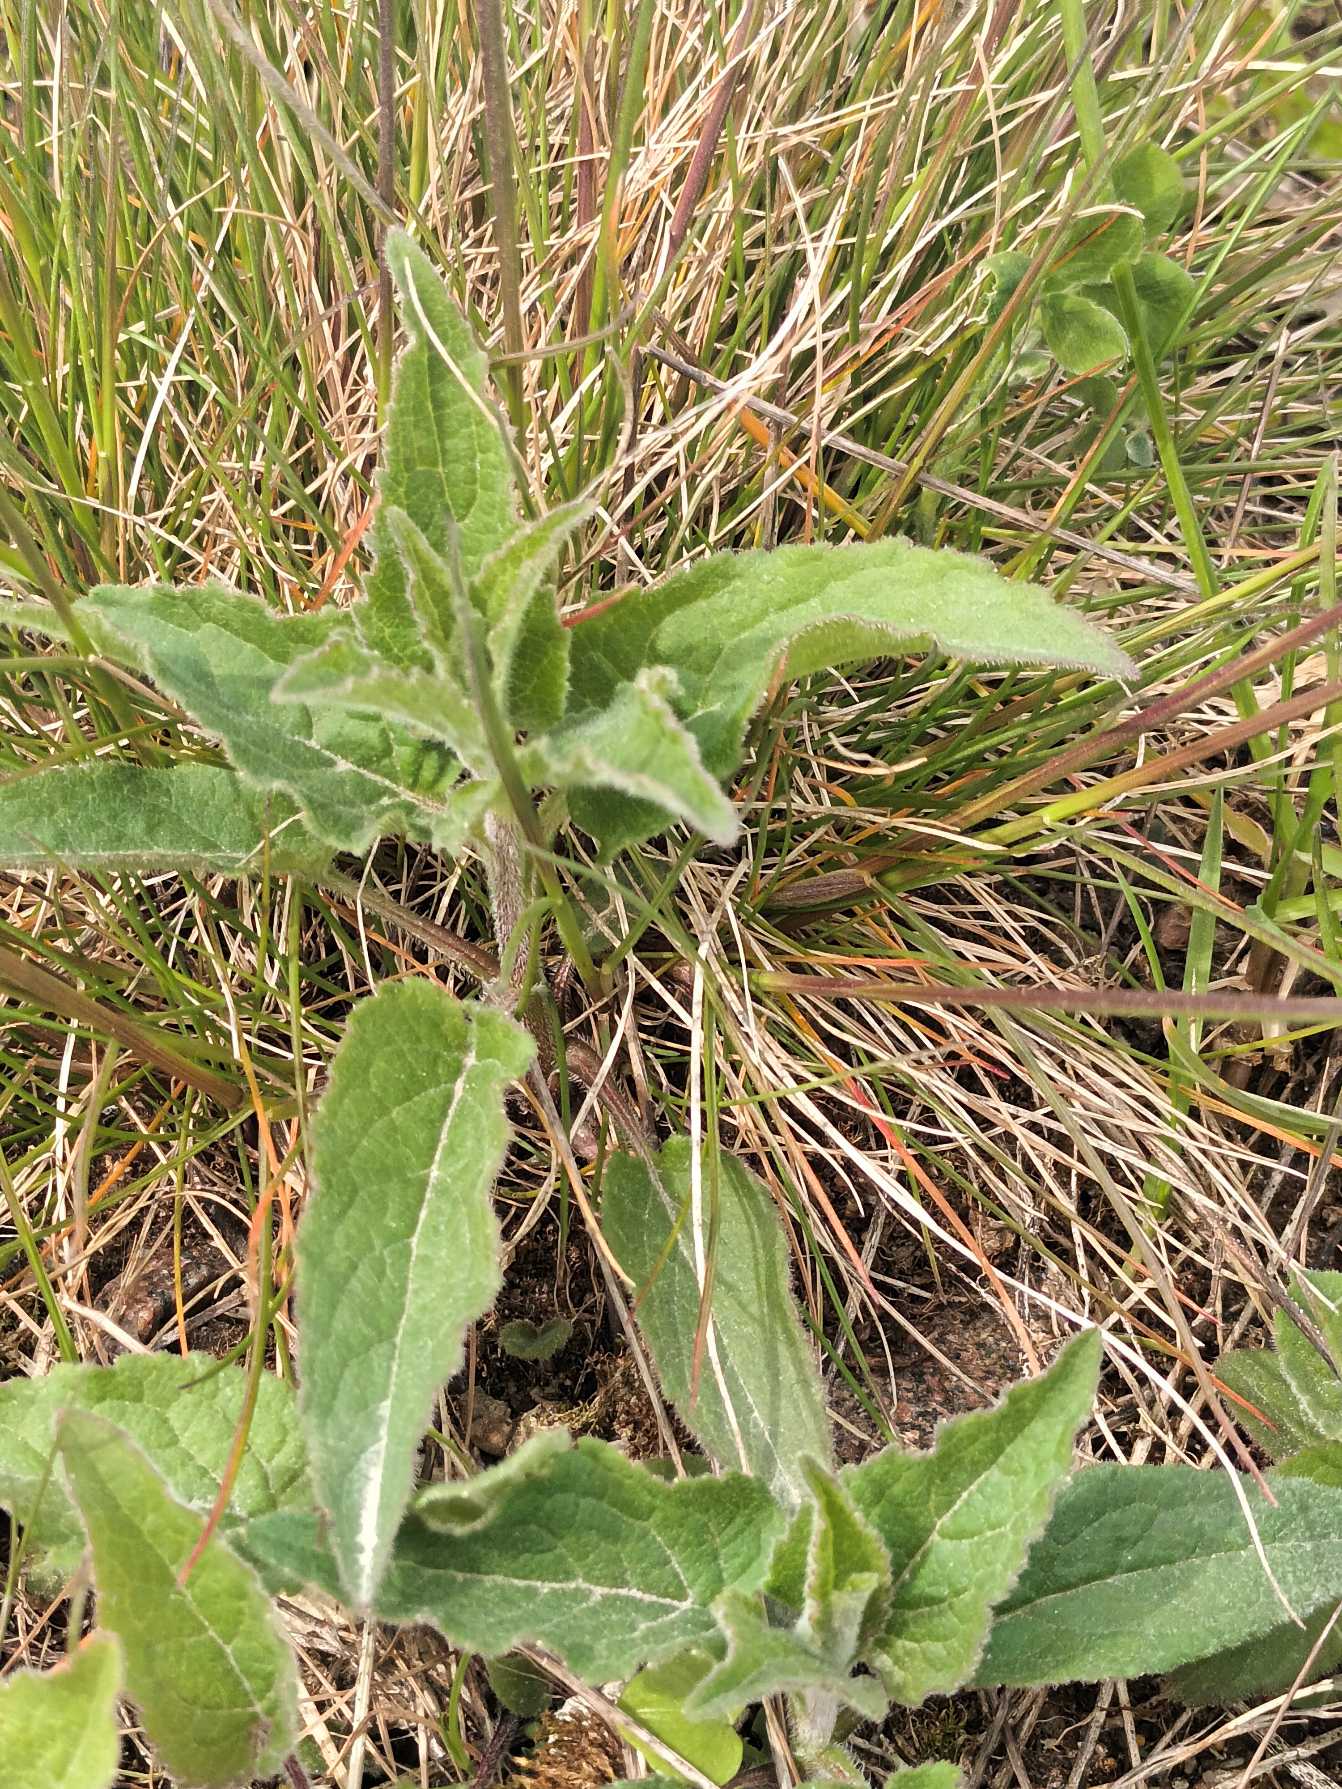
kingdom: Plantae
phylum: Tracheophyta
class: Magnoliopsida
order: Asterales
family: Campanulaceae
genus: Campanula
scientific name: Campanula rapunculoides
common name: Ensidig klokke
